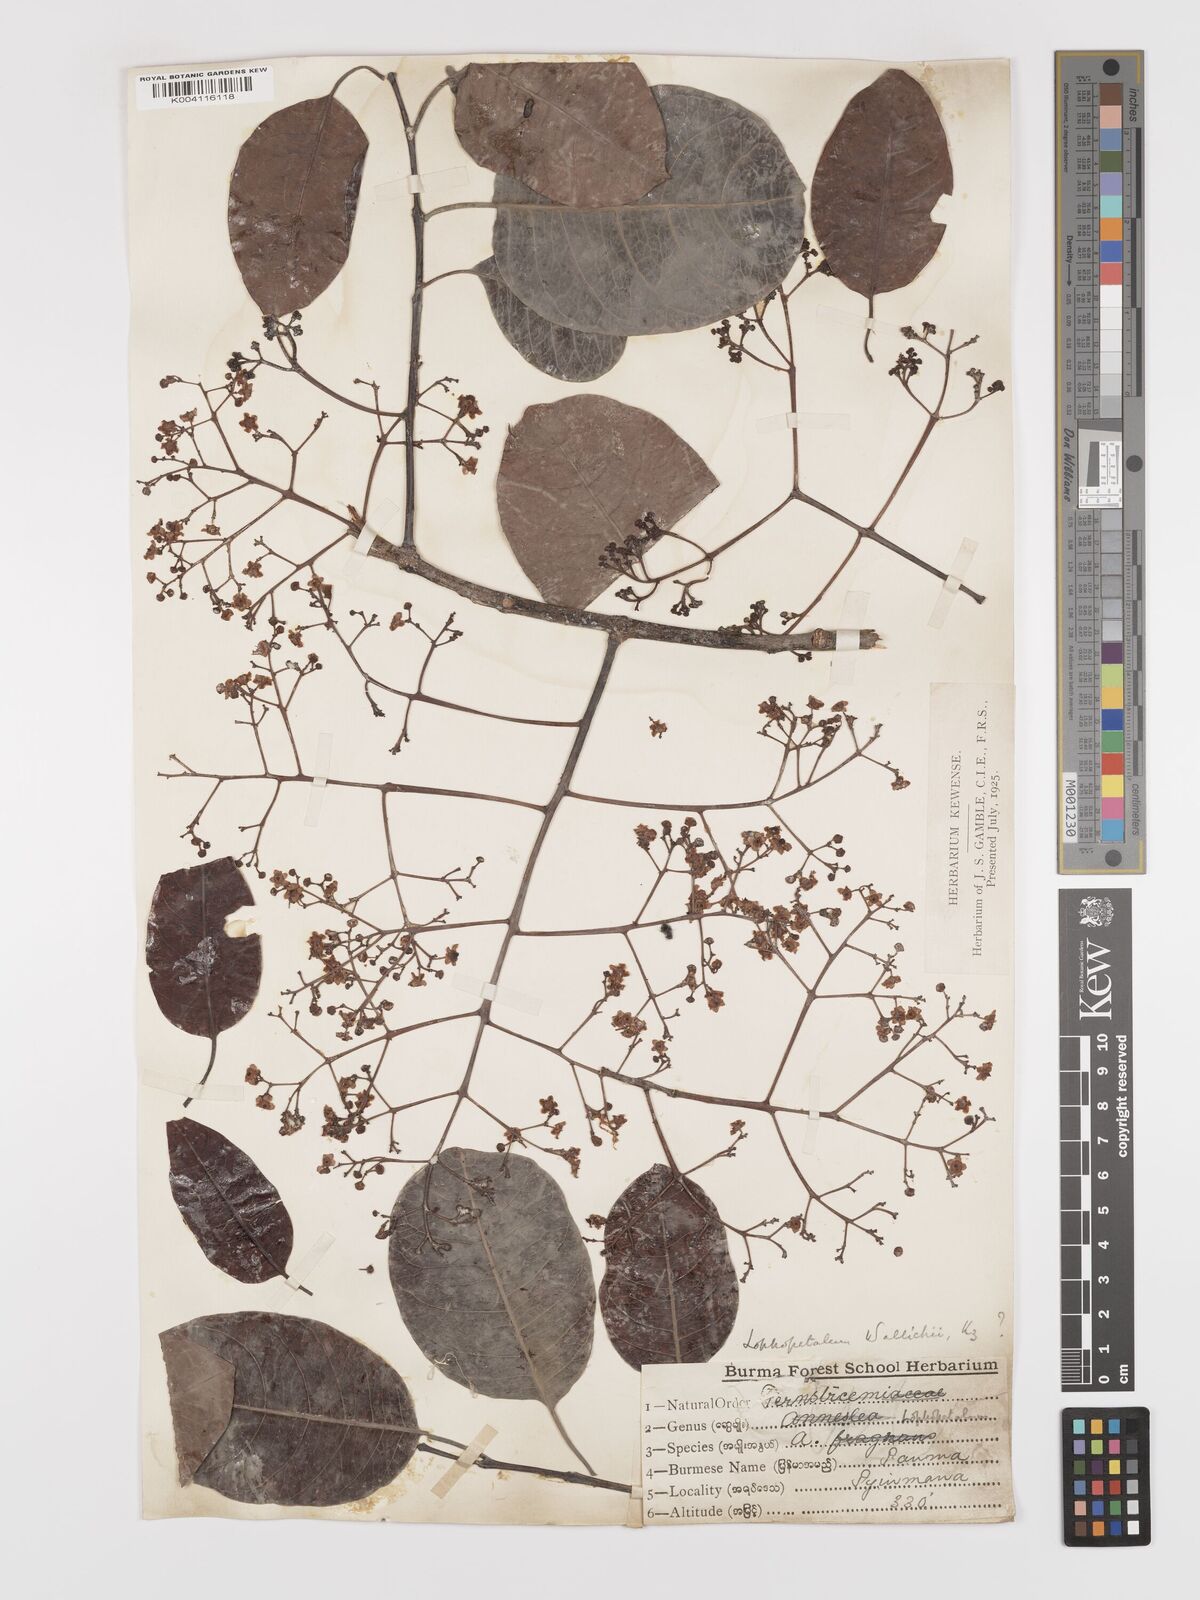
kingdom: Plantae
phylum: Tracheophyta
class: Magnoliopsida
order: Celastrales
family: Celastraceae
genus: Lophopetalum
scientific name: Lophopetalum wallichii
